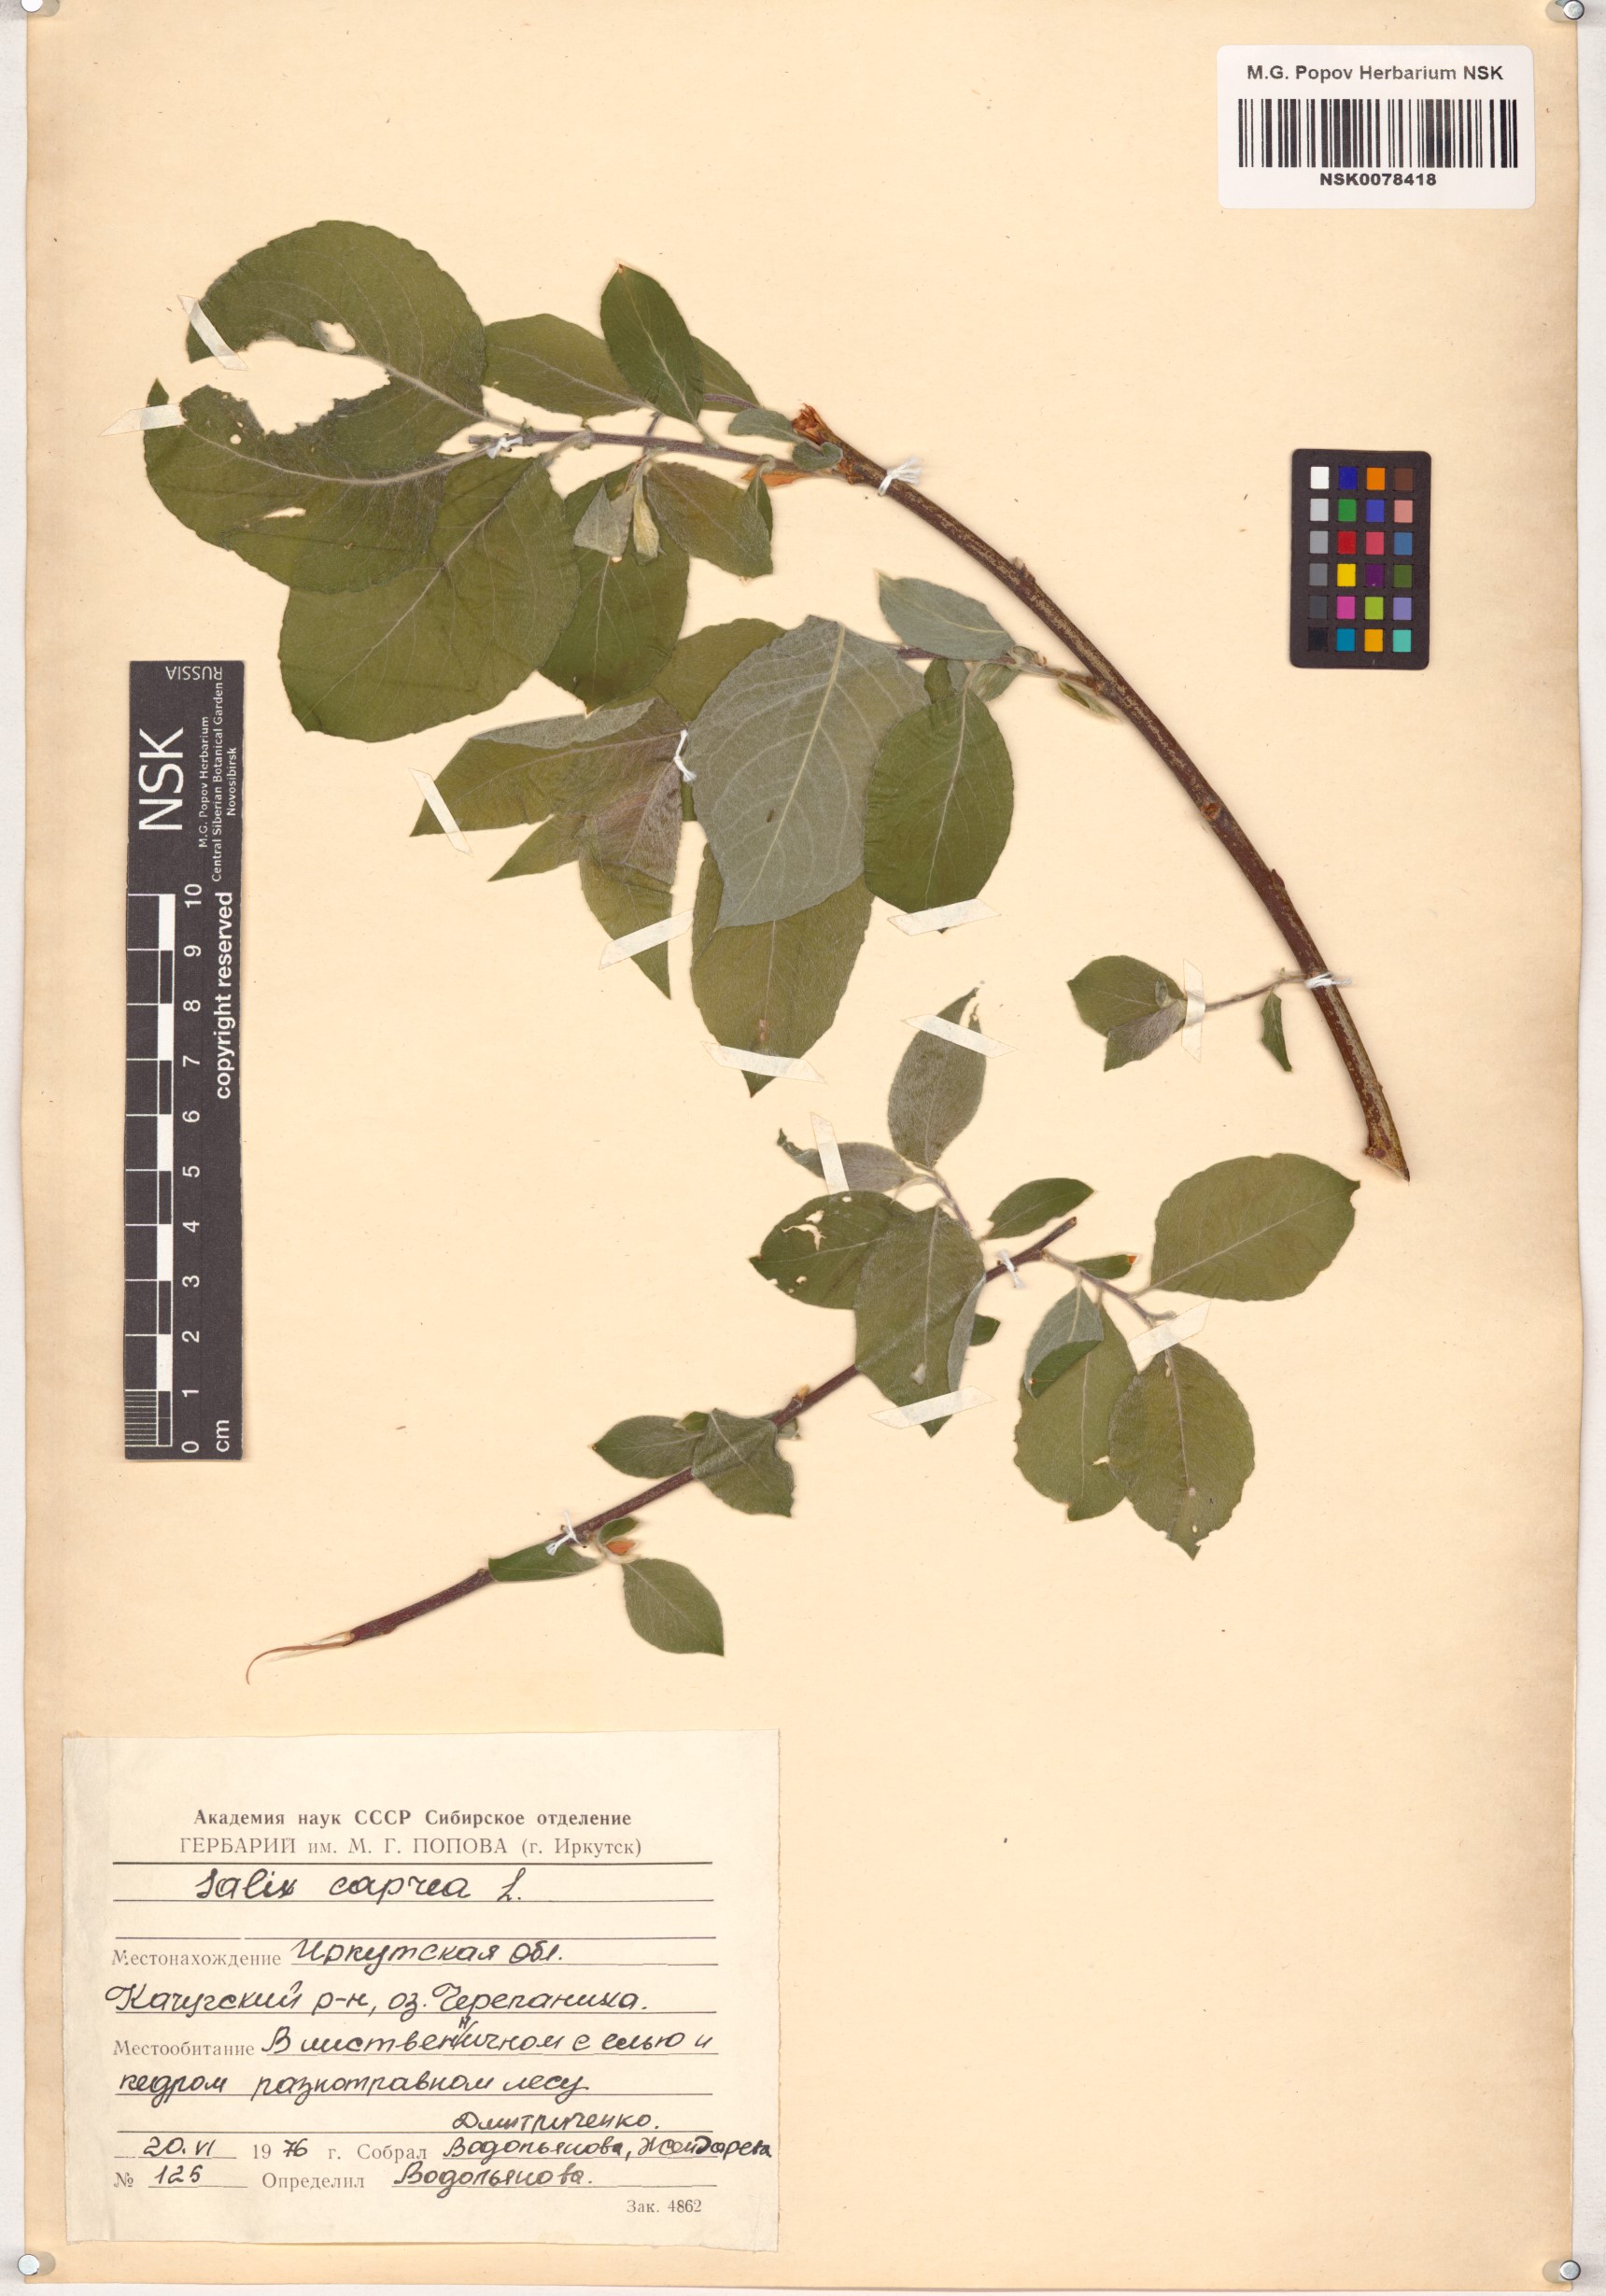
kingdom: Plantae
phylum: Tracheophyta
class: Magnoliopsida
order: Malpighiales
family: Salicaceae
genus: Salix
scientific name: Salix caprea
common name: Goat willow
